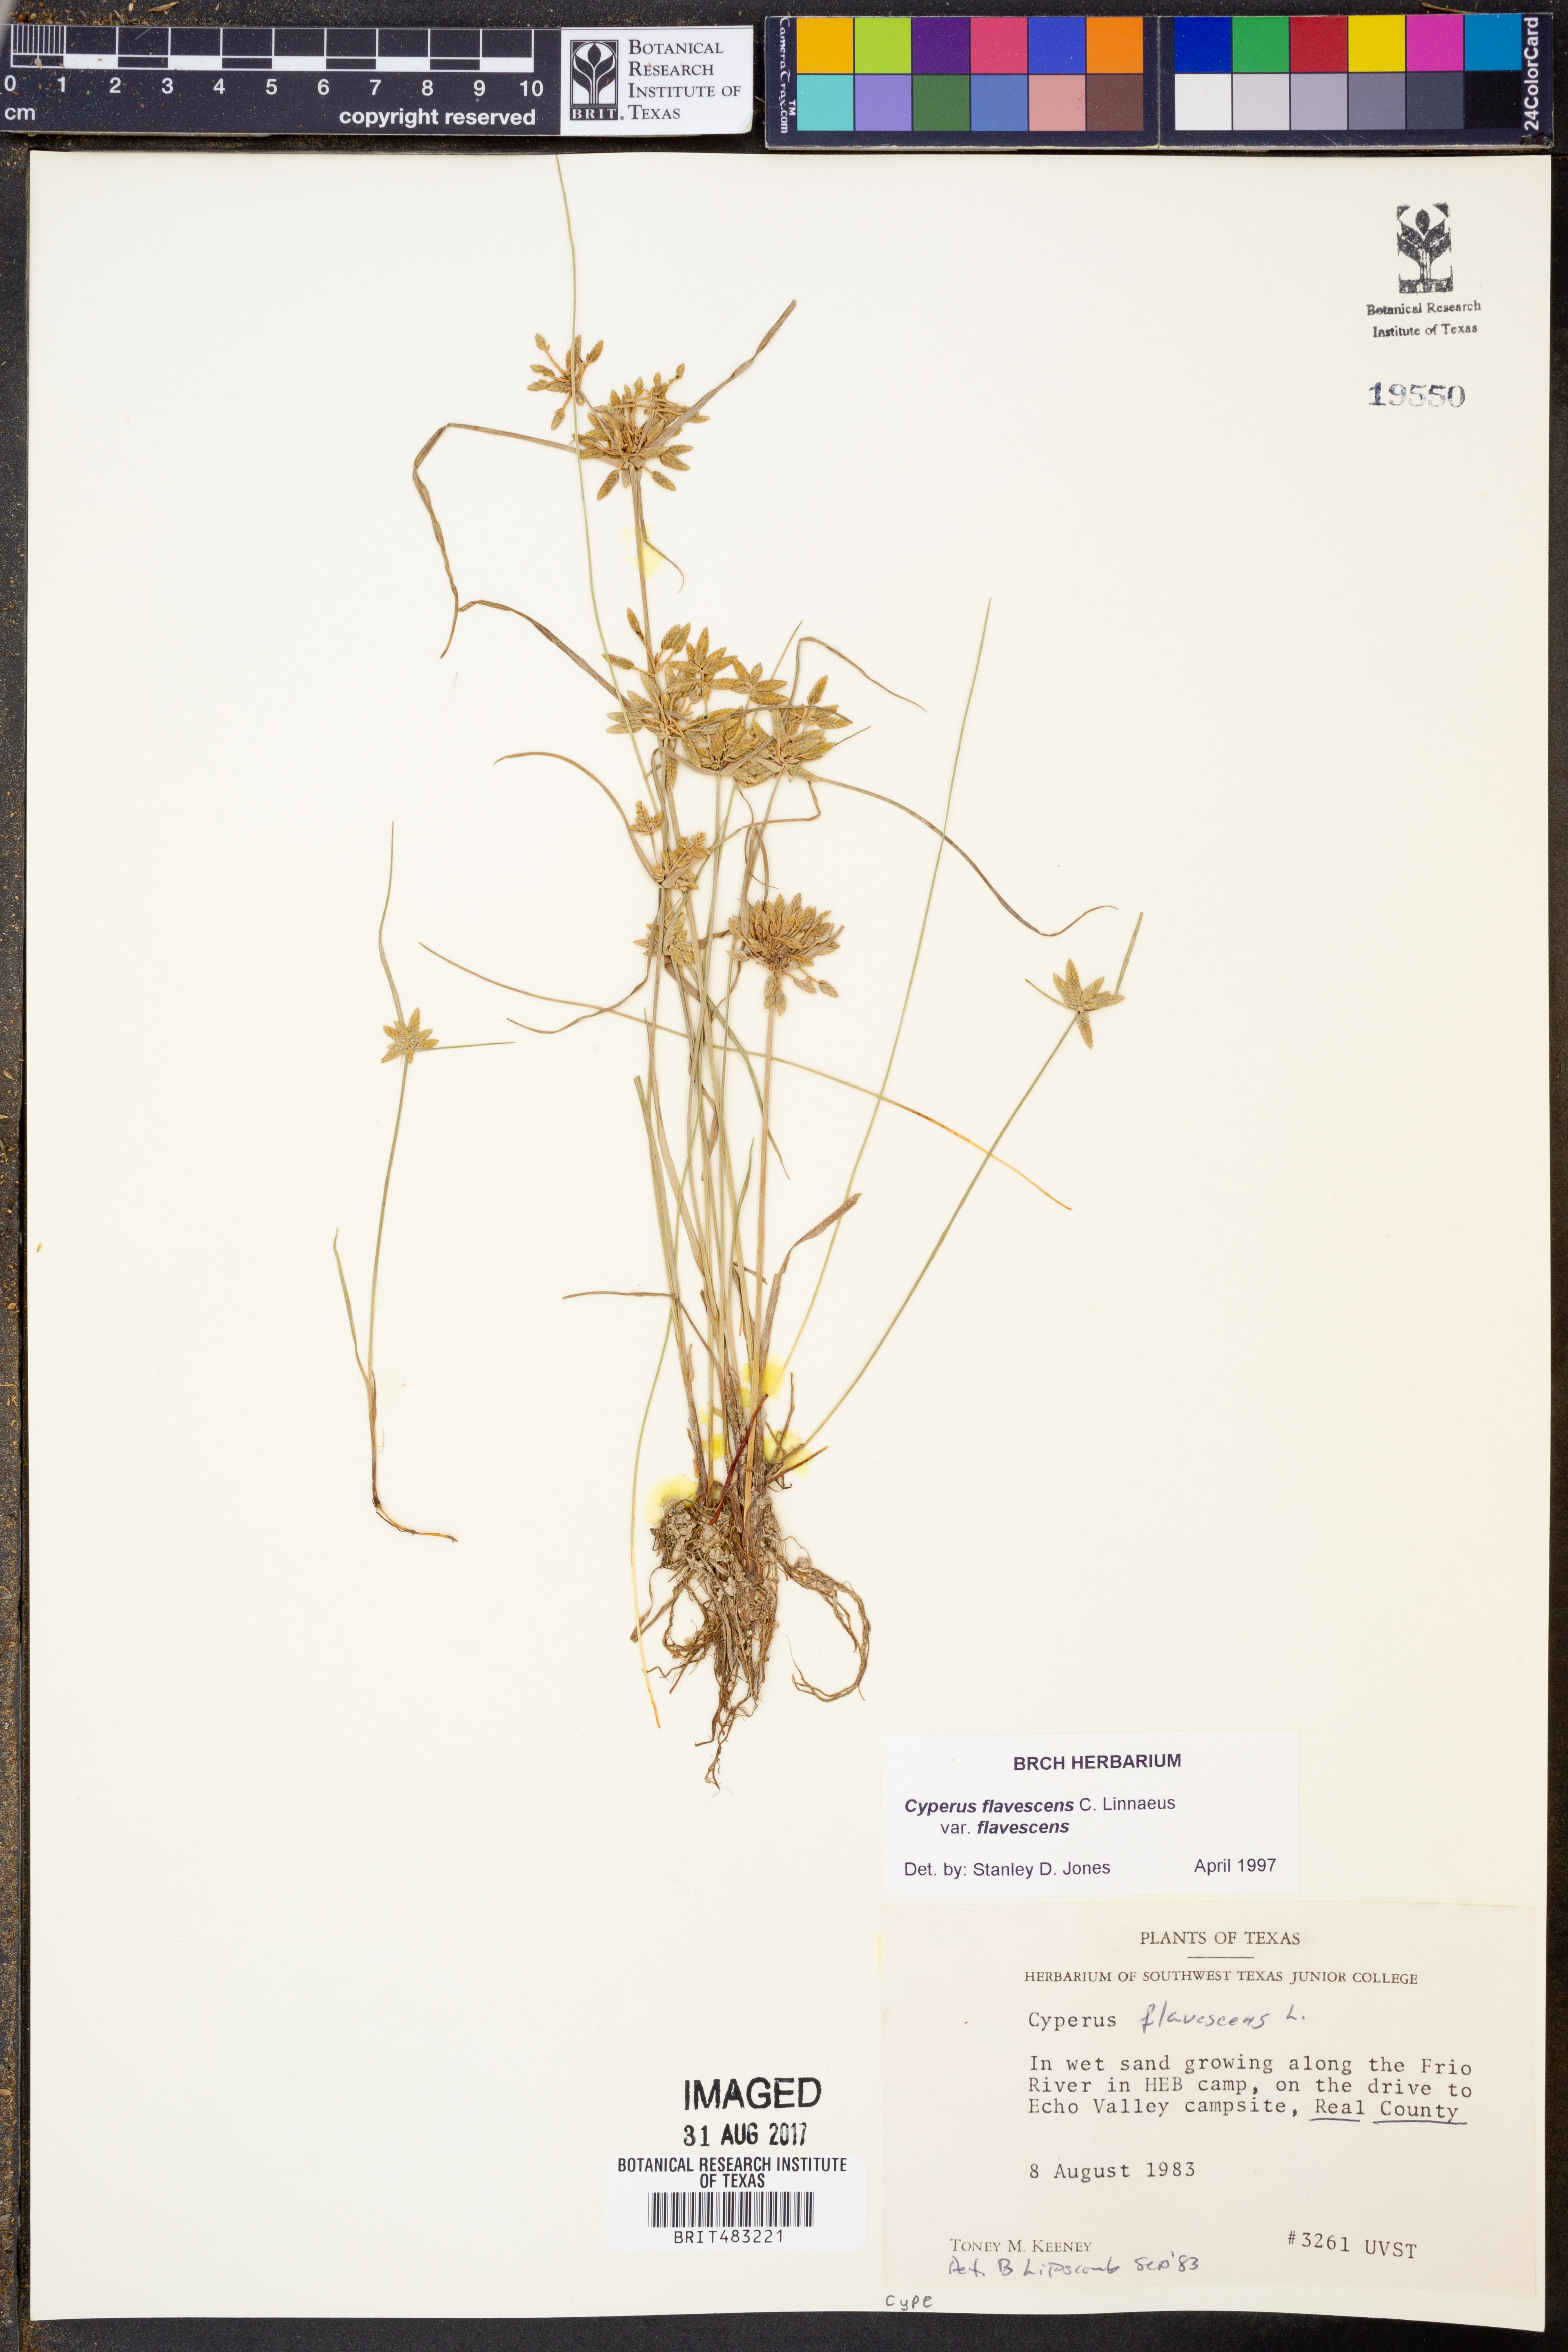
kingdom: Plantae
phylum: Tracheophyta
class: Liliopsida
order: Poales
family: Cyperaceae
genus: Cyperus
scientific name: Cyperus flavescens
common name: Yellow galingale
